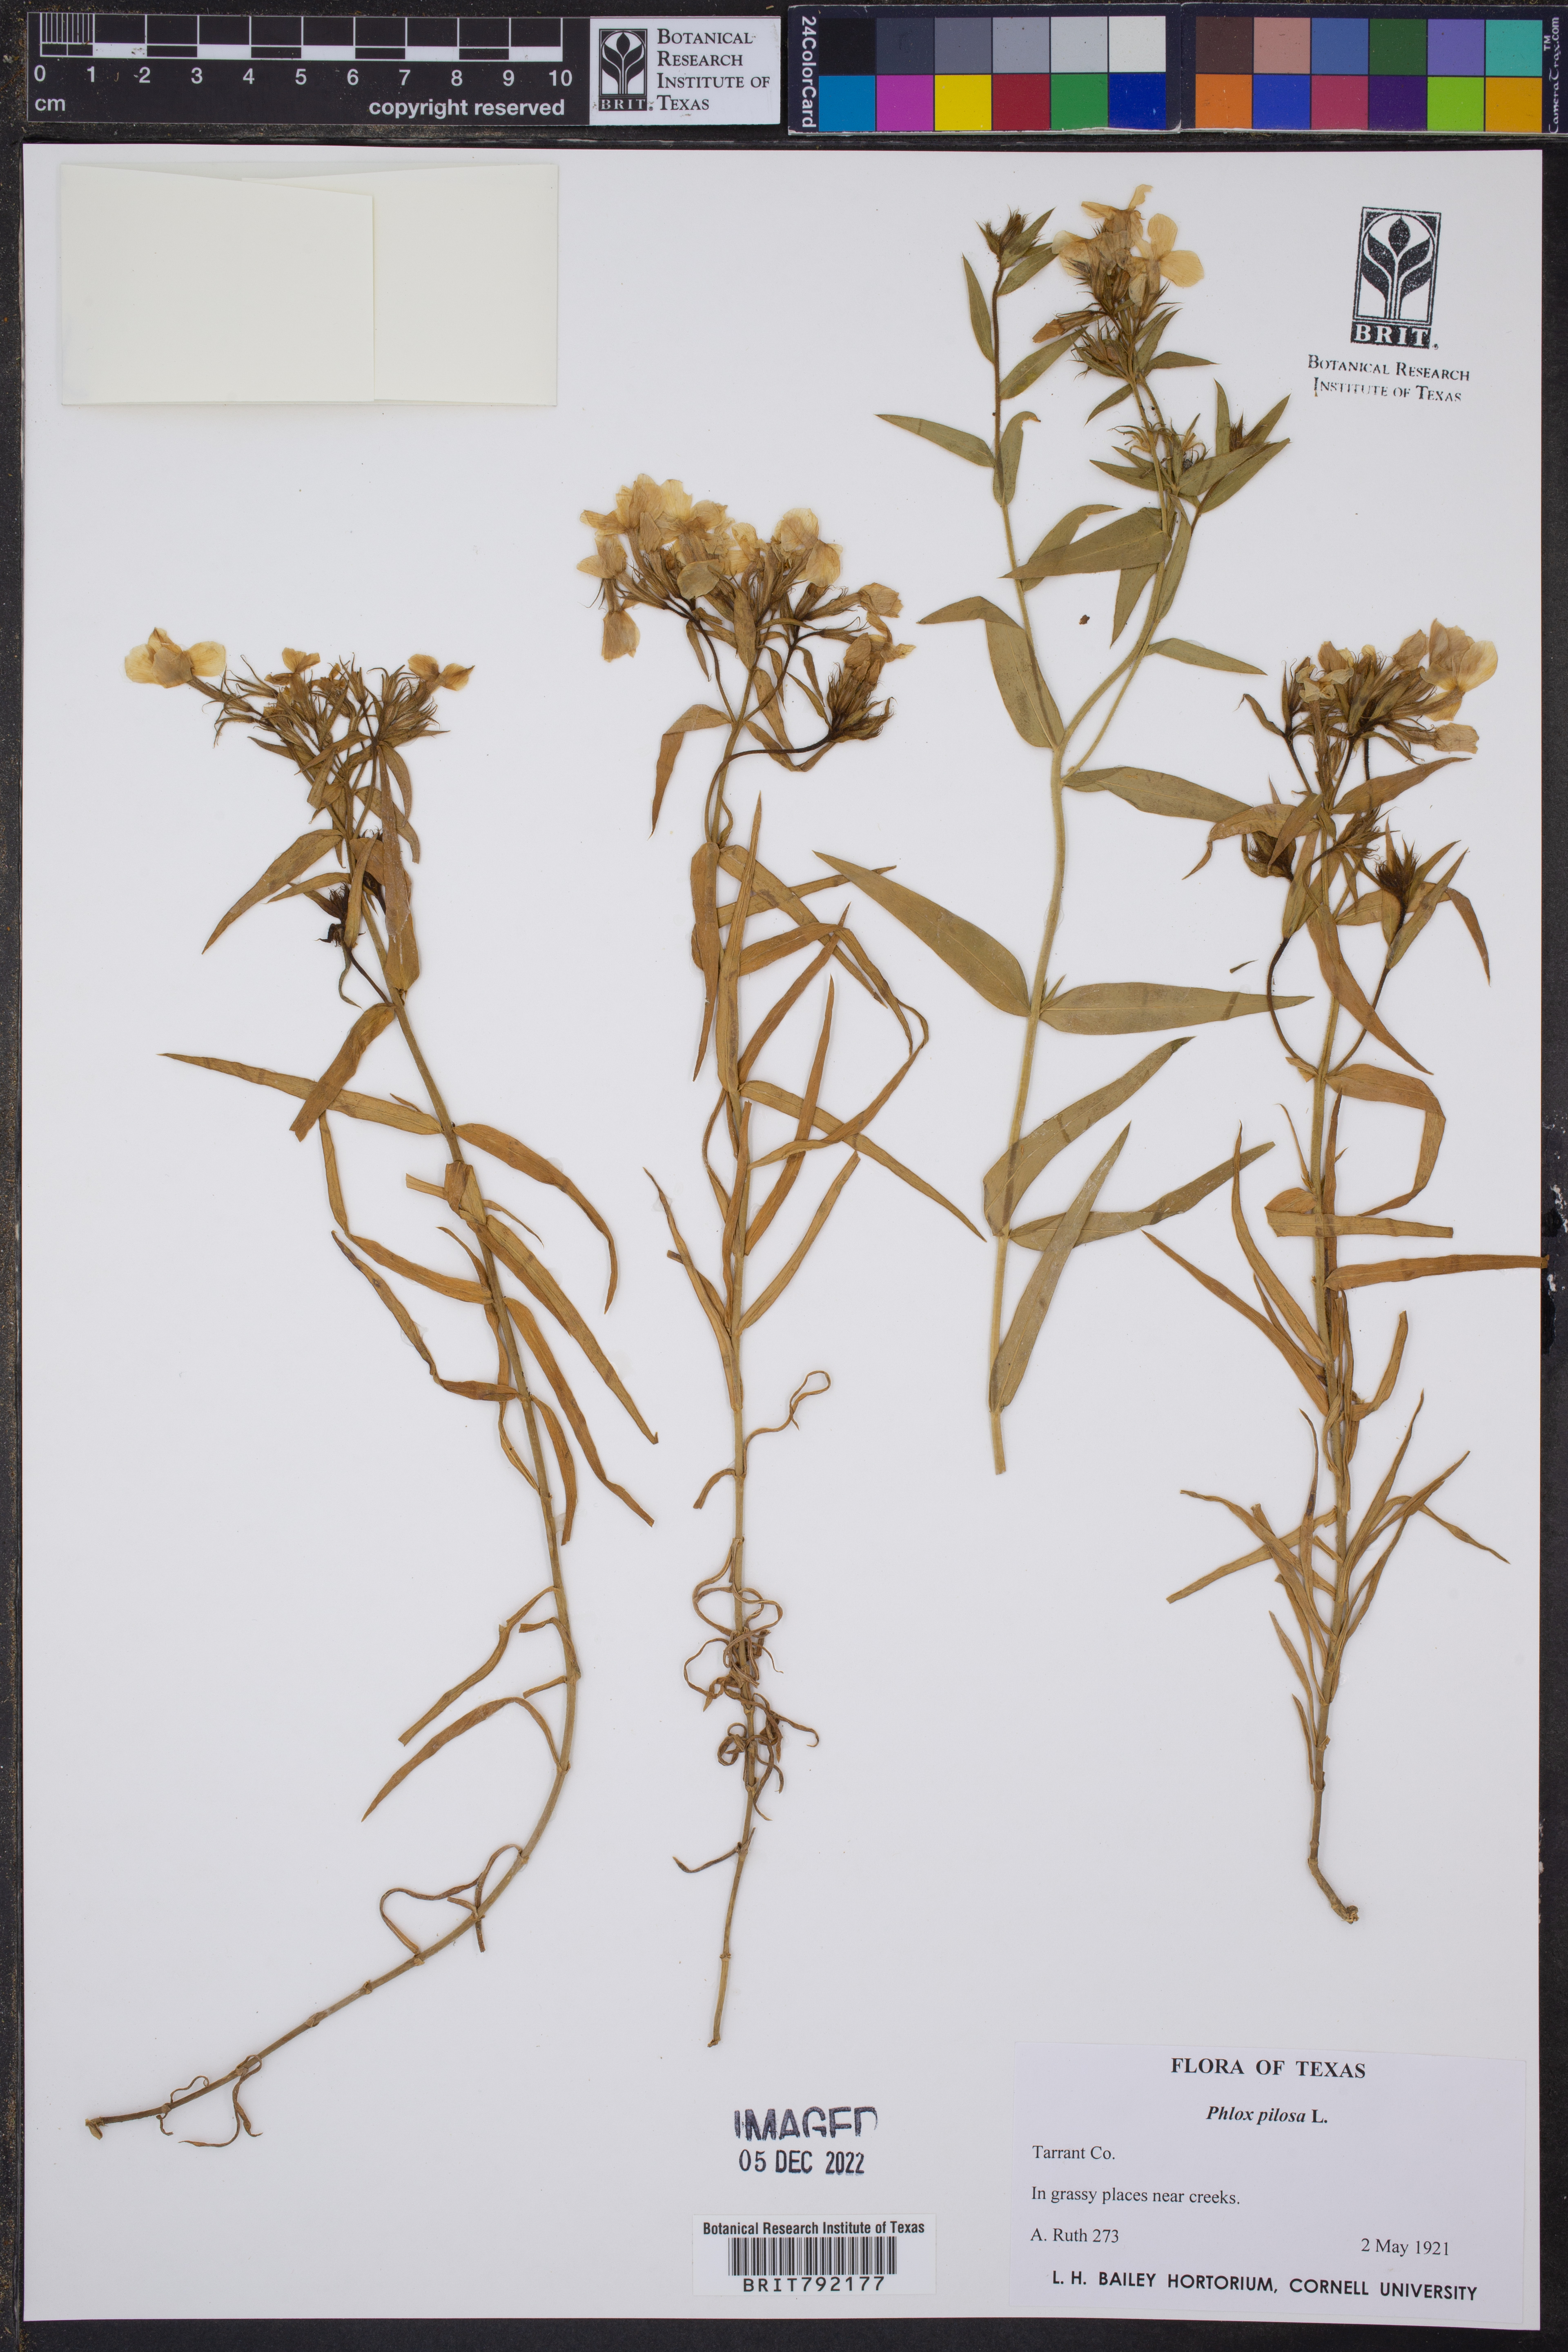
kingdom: Plantae
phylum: Tracheophyta
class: Magnoliopsida
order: Ericales
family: Polemoniaceae
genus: Phlox
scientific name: Phlox pilosa
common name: Prairie phlox
